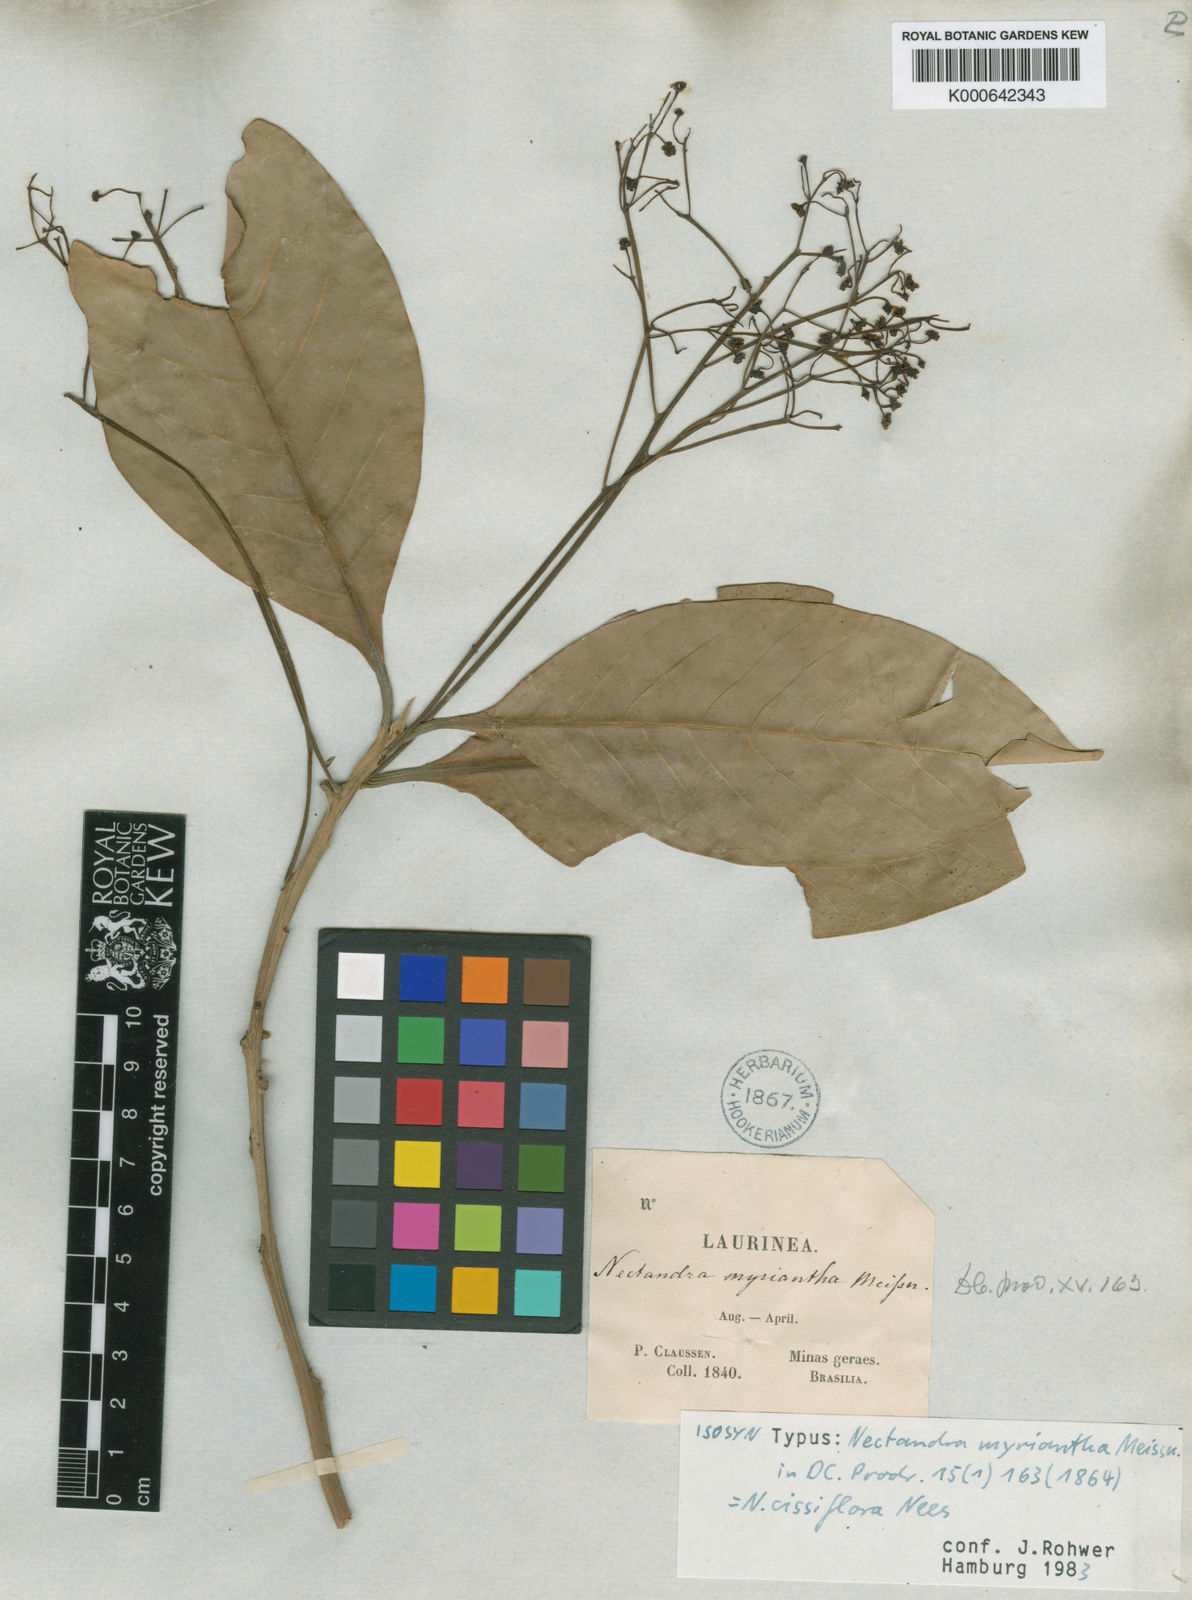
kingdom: Plantae
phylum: Tracheophyta
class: Magnoliopsida
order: Laurales
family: Lauraceae
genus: Nectandra
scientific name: Nectandra cissiflora
